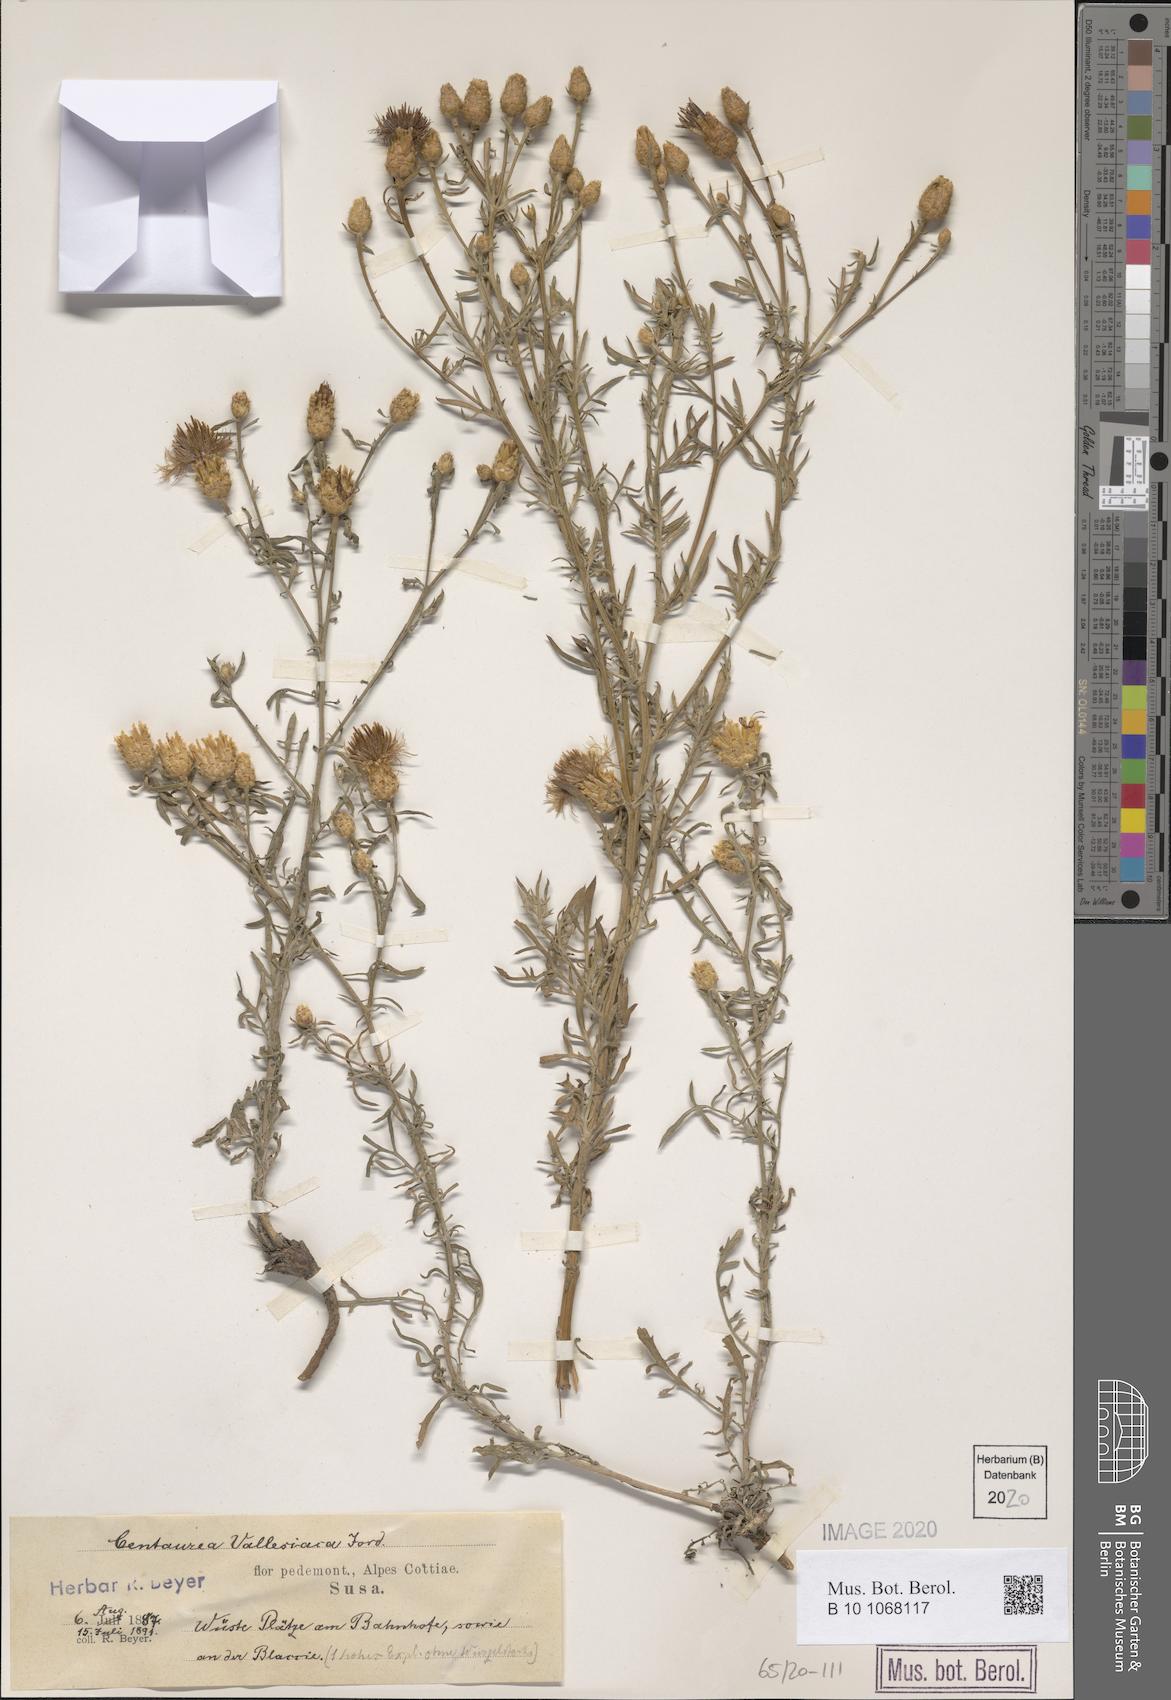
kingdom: Plantae
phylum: Tracheophyta
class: Magnoliopsida
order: Asterales
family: Asteraceae
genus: Centaurea
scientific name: Centaurea valesiaca
